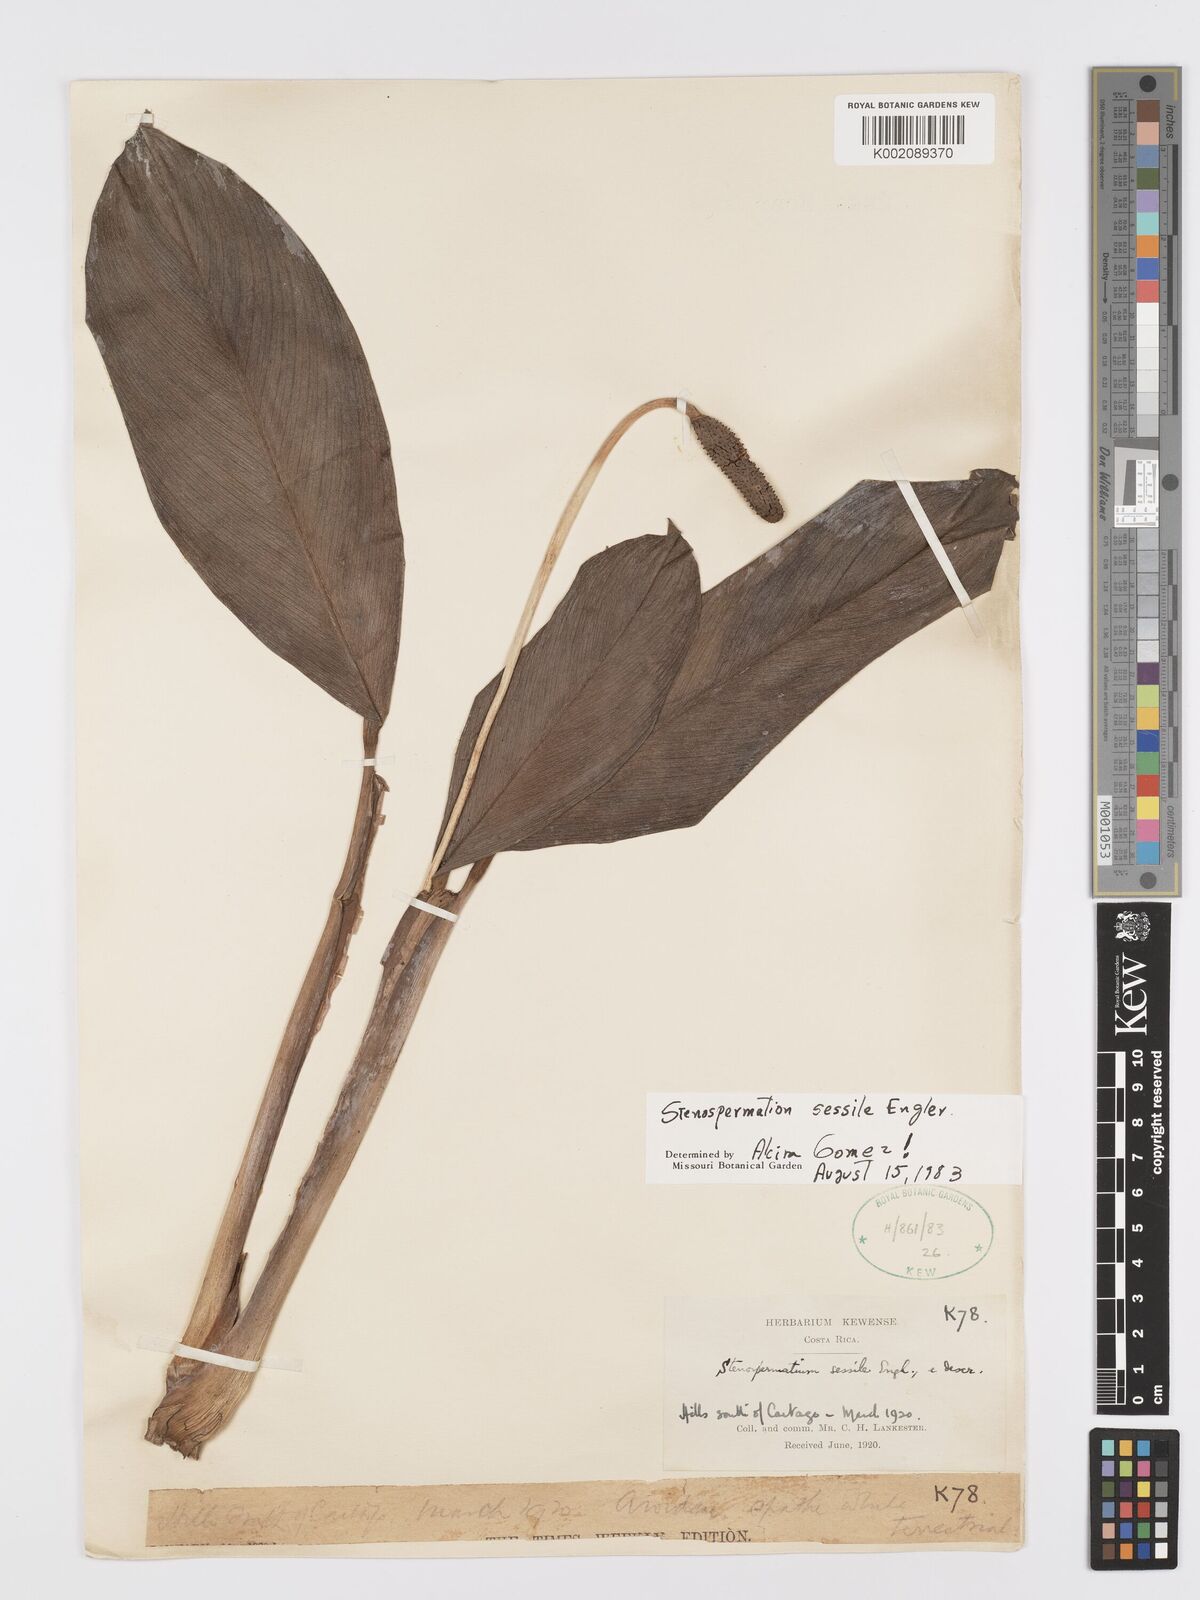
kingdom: Plantae
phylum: Tracheophyta
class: Liliopsida
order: Alismatales
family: Araceae
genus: Stenospermation
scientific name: Stenospermation sessile
